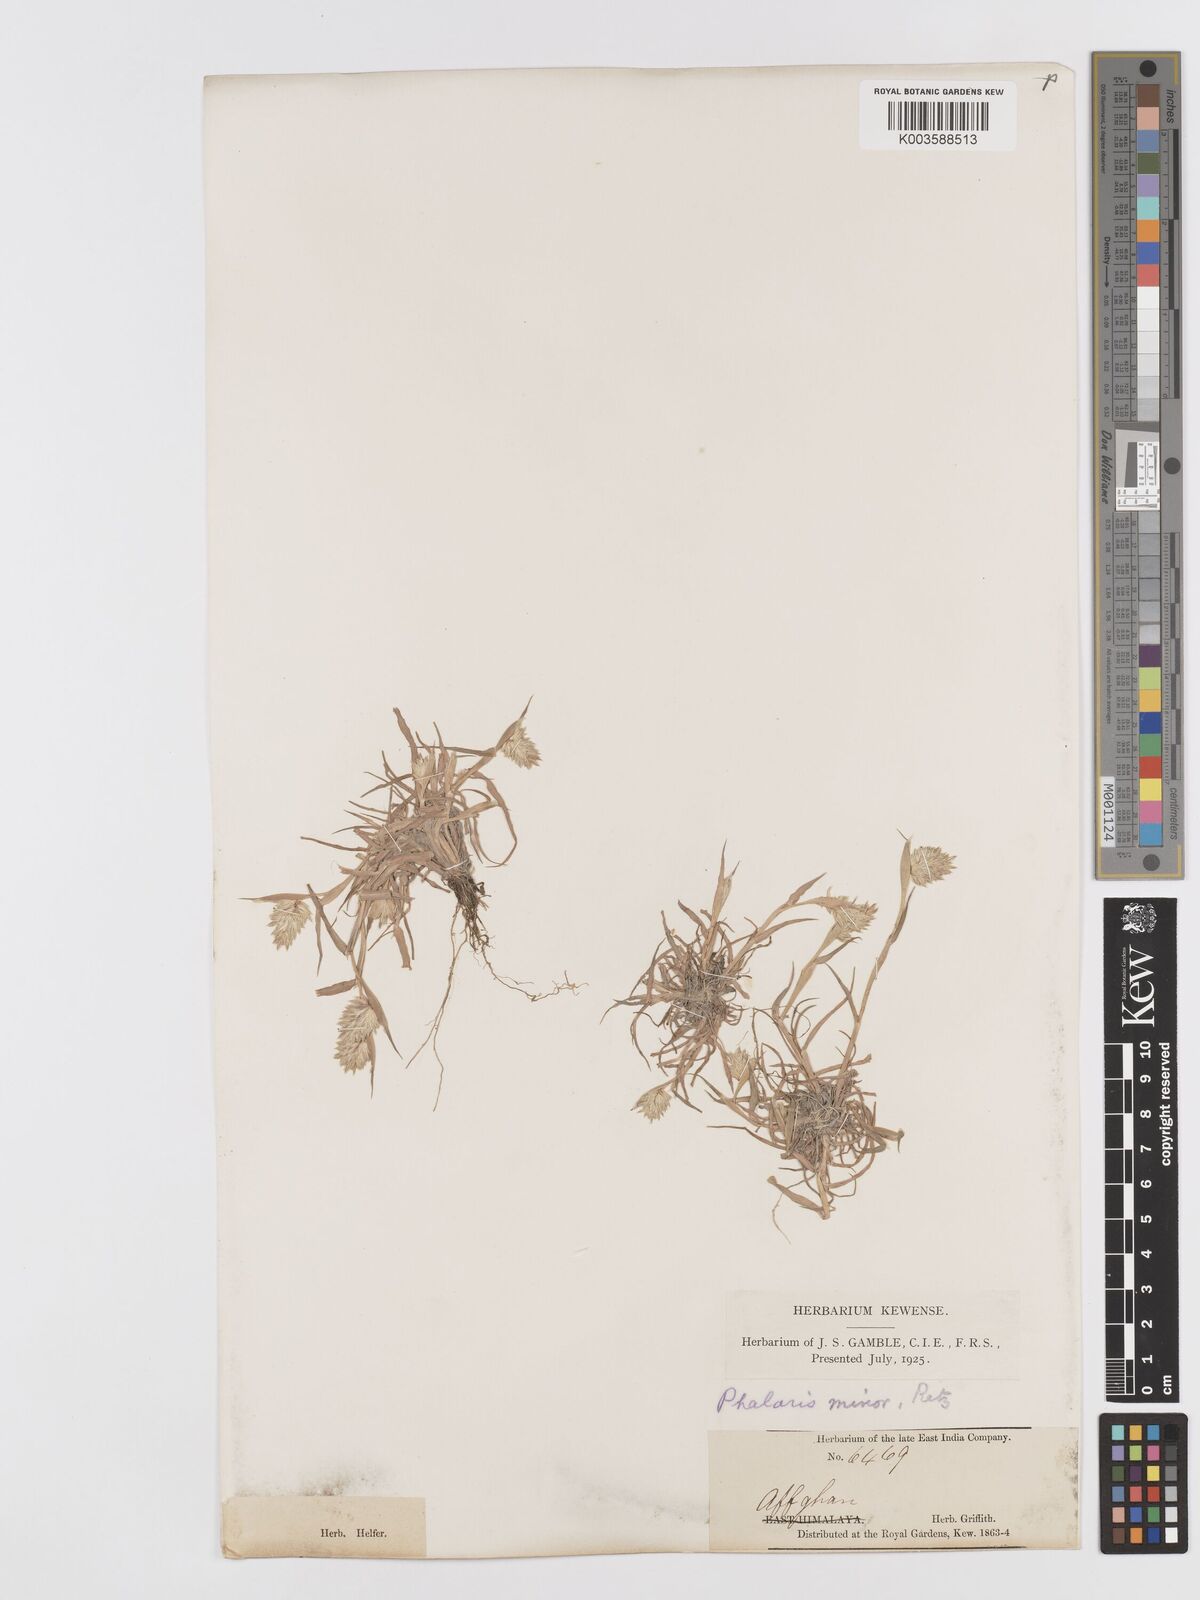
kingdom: Plantae
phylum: Tracheophyta
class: Liliopsida
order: Poales
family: Poaceae
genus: Phalaris
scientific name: Phalaris minor
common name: Littleseed canarygrass
